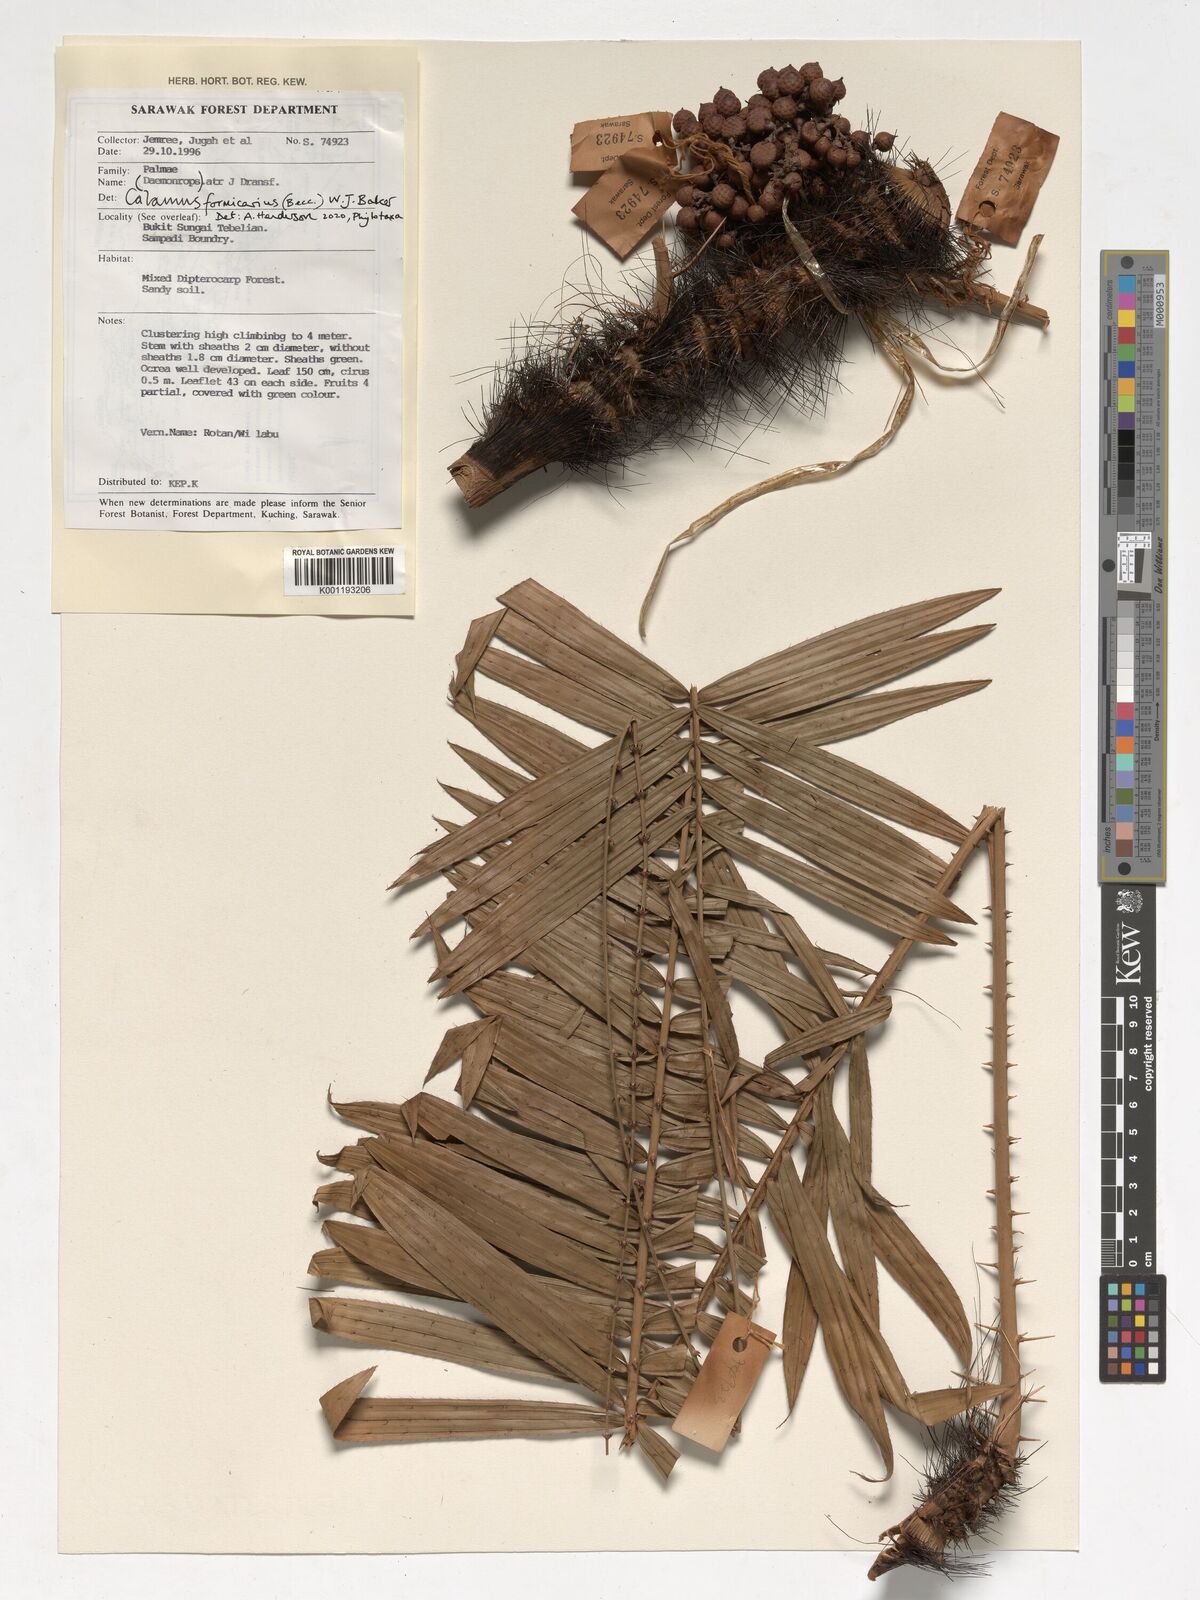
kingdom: Plantae
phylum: Tracheophyta
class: Liliopsida
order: Arecales
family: Arecaceae
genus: Calamus
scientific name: Calamus formicarius
